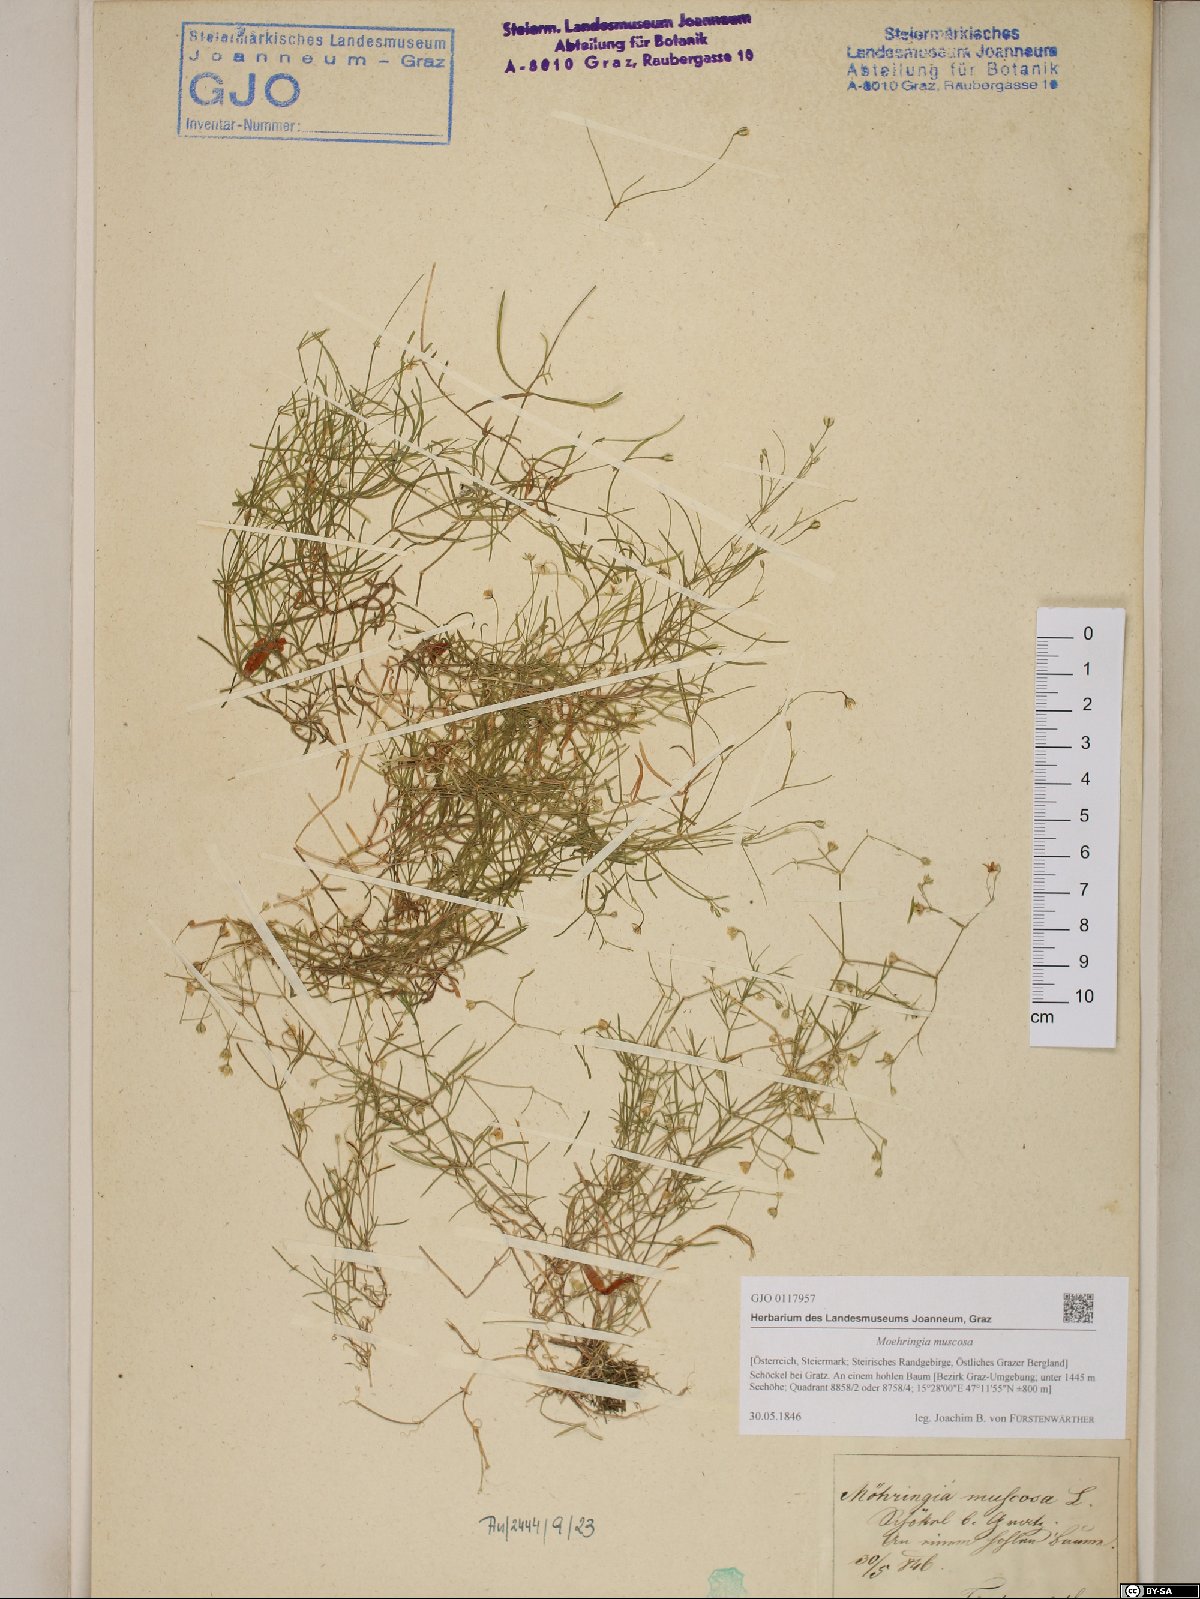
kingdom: Plantae
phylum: Tracheophyta
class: Magnoliopsida
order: Caryophyllales
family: Caryophyllaceae
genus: Moehringia
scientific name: Moehringia muscosa
